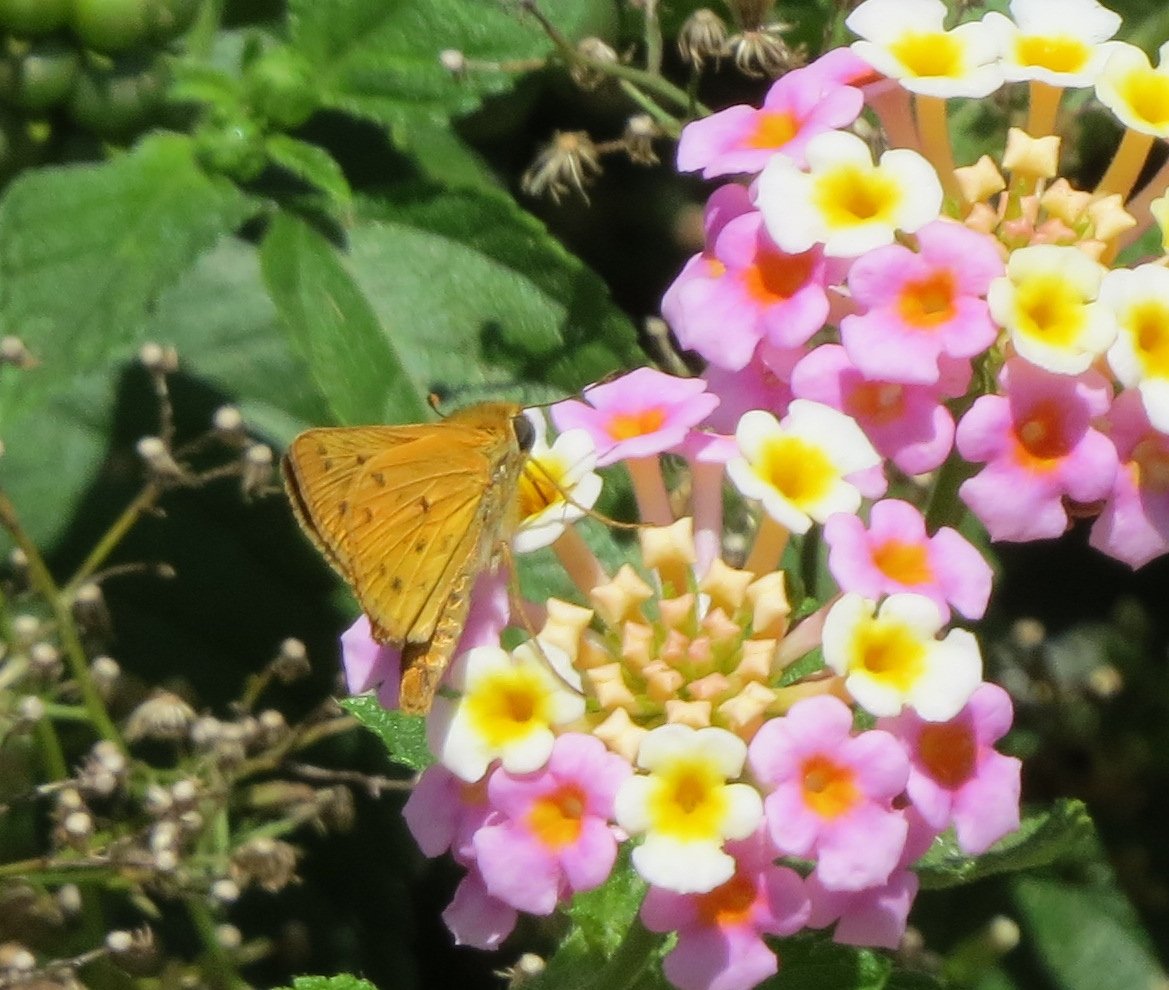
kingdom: Animalia
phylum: Arthropoda
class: Insecta
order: Lepidoptera
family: Hesperiidae
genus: Hylephila
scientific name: Hylephila phyleus
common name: Fiery Skipper
